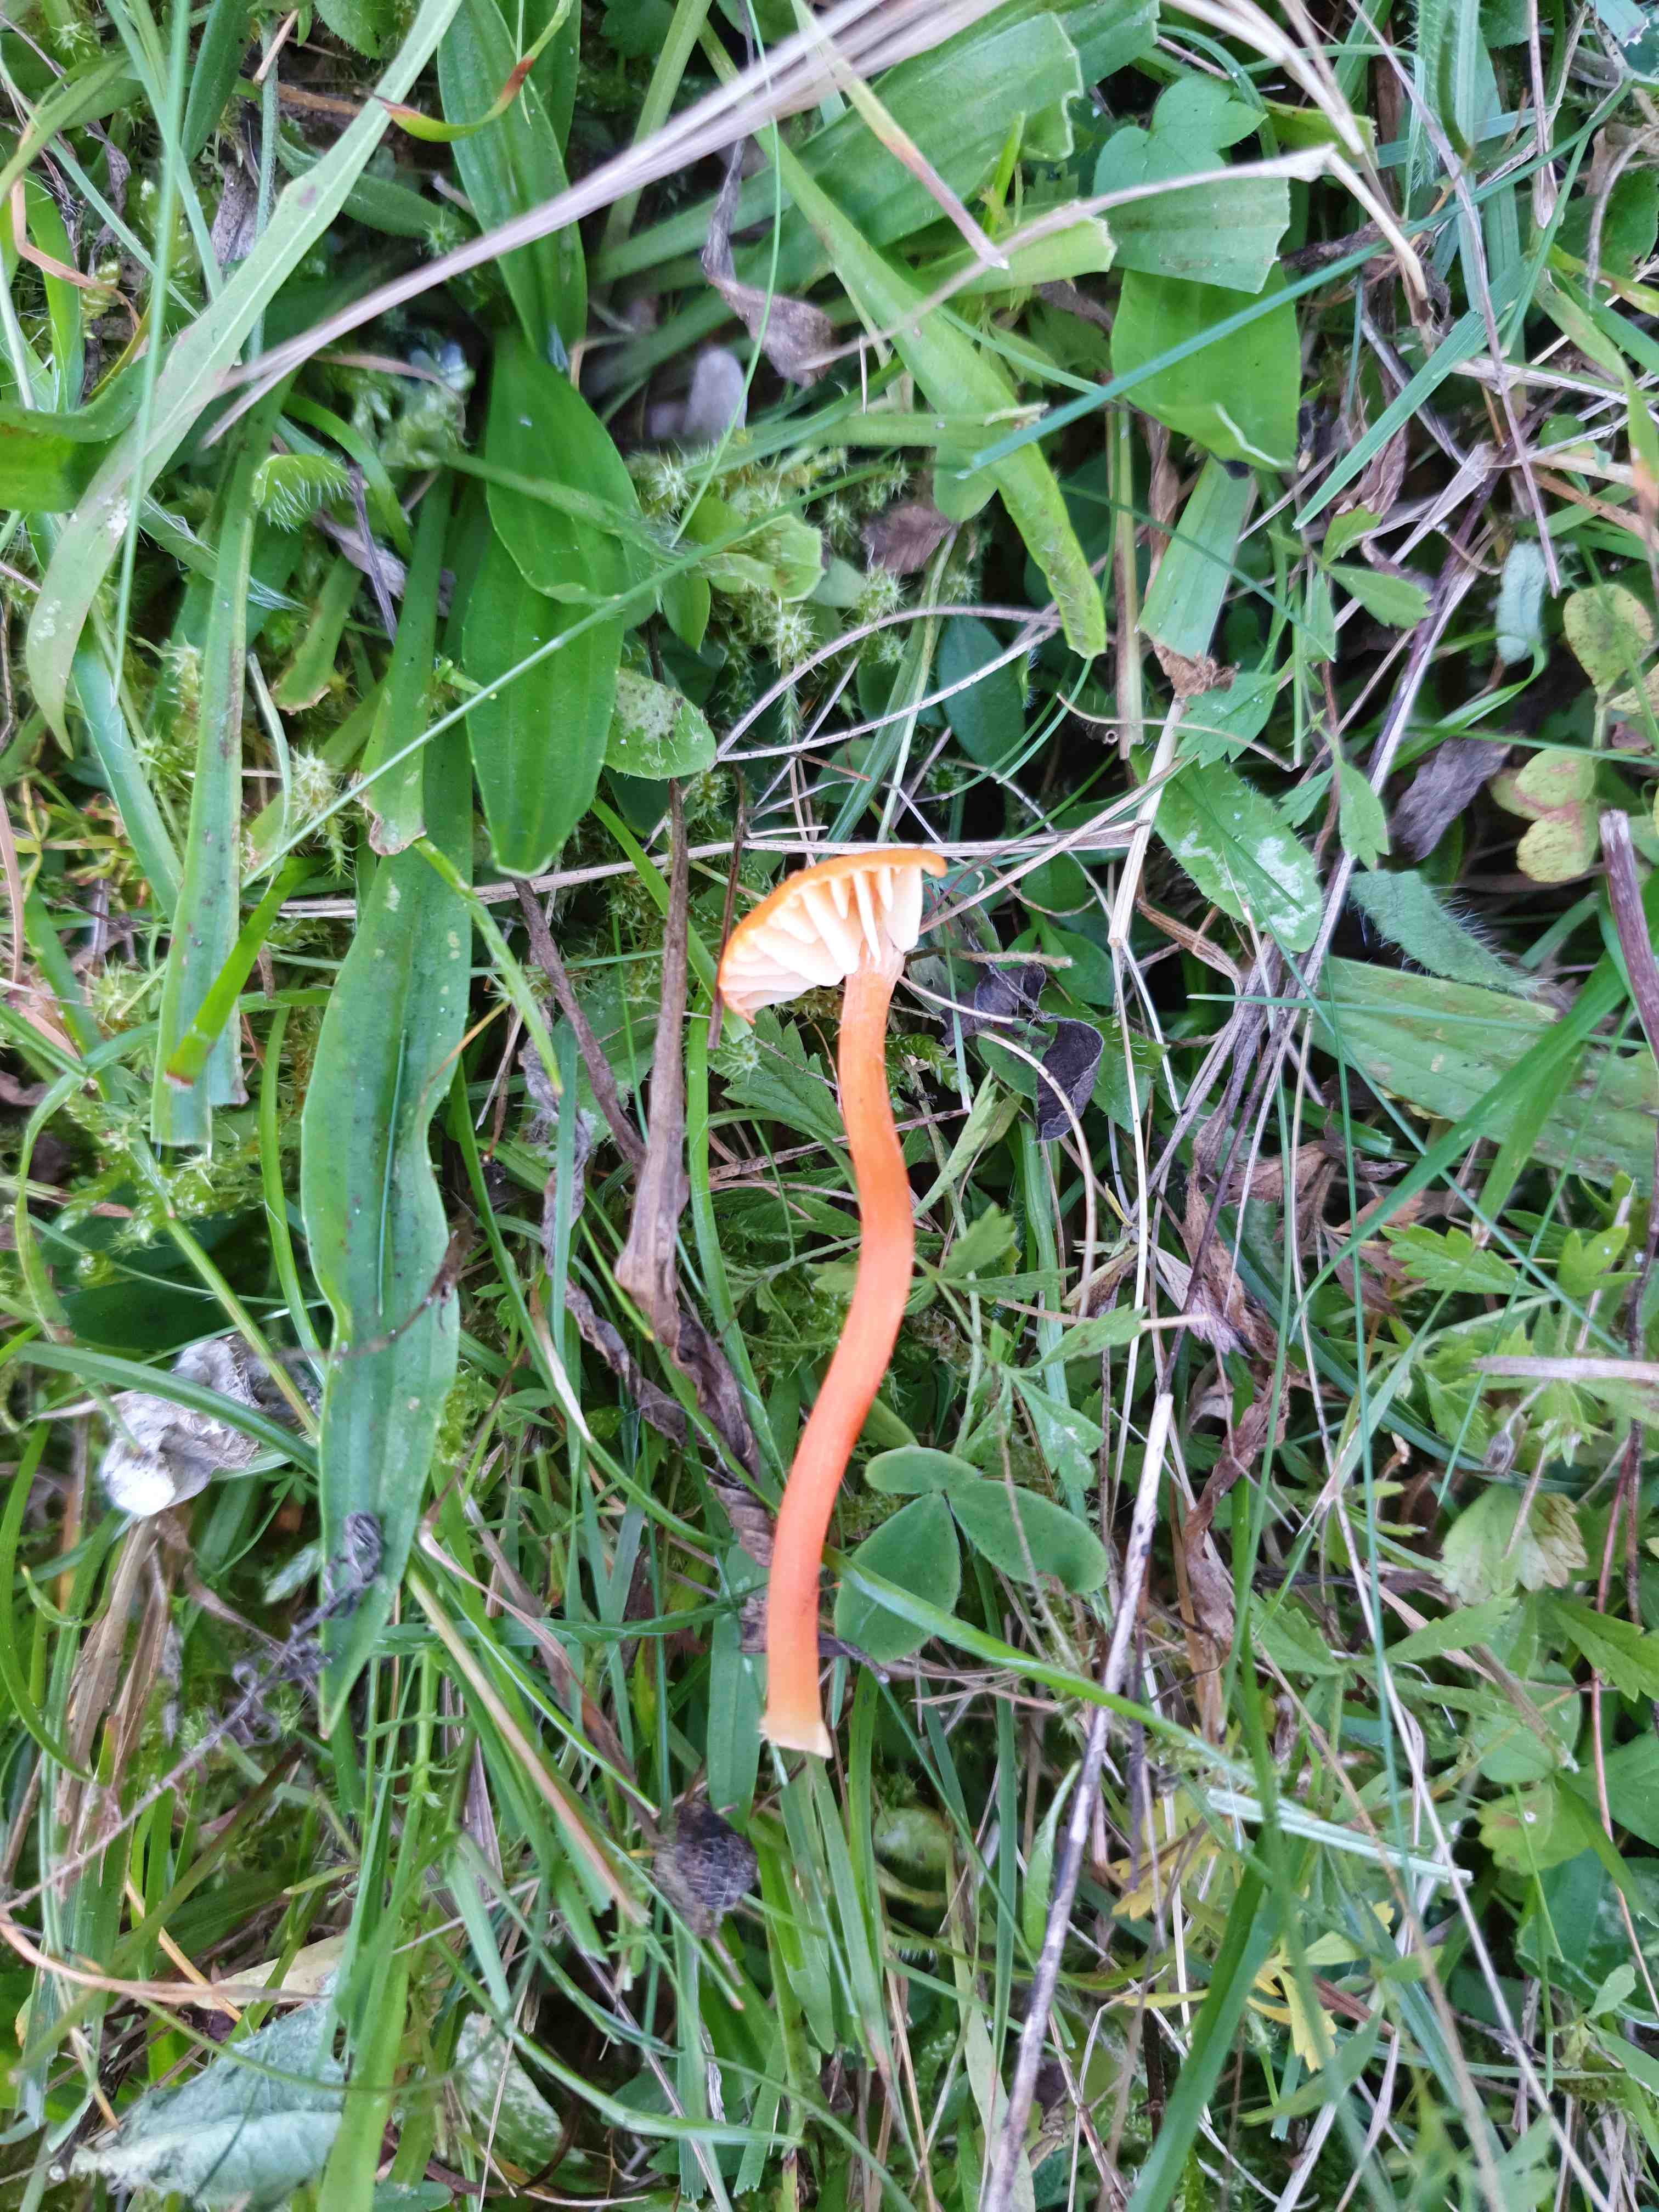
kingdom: Fungi
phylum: Basidiomycota
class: Agaricomycetes
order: Agaricales
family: Hygrophoraceae
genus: Hygrocybe
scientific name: Hygrocybe helobia
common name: hvidløgs-vokshat
